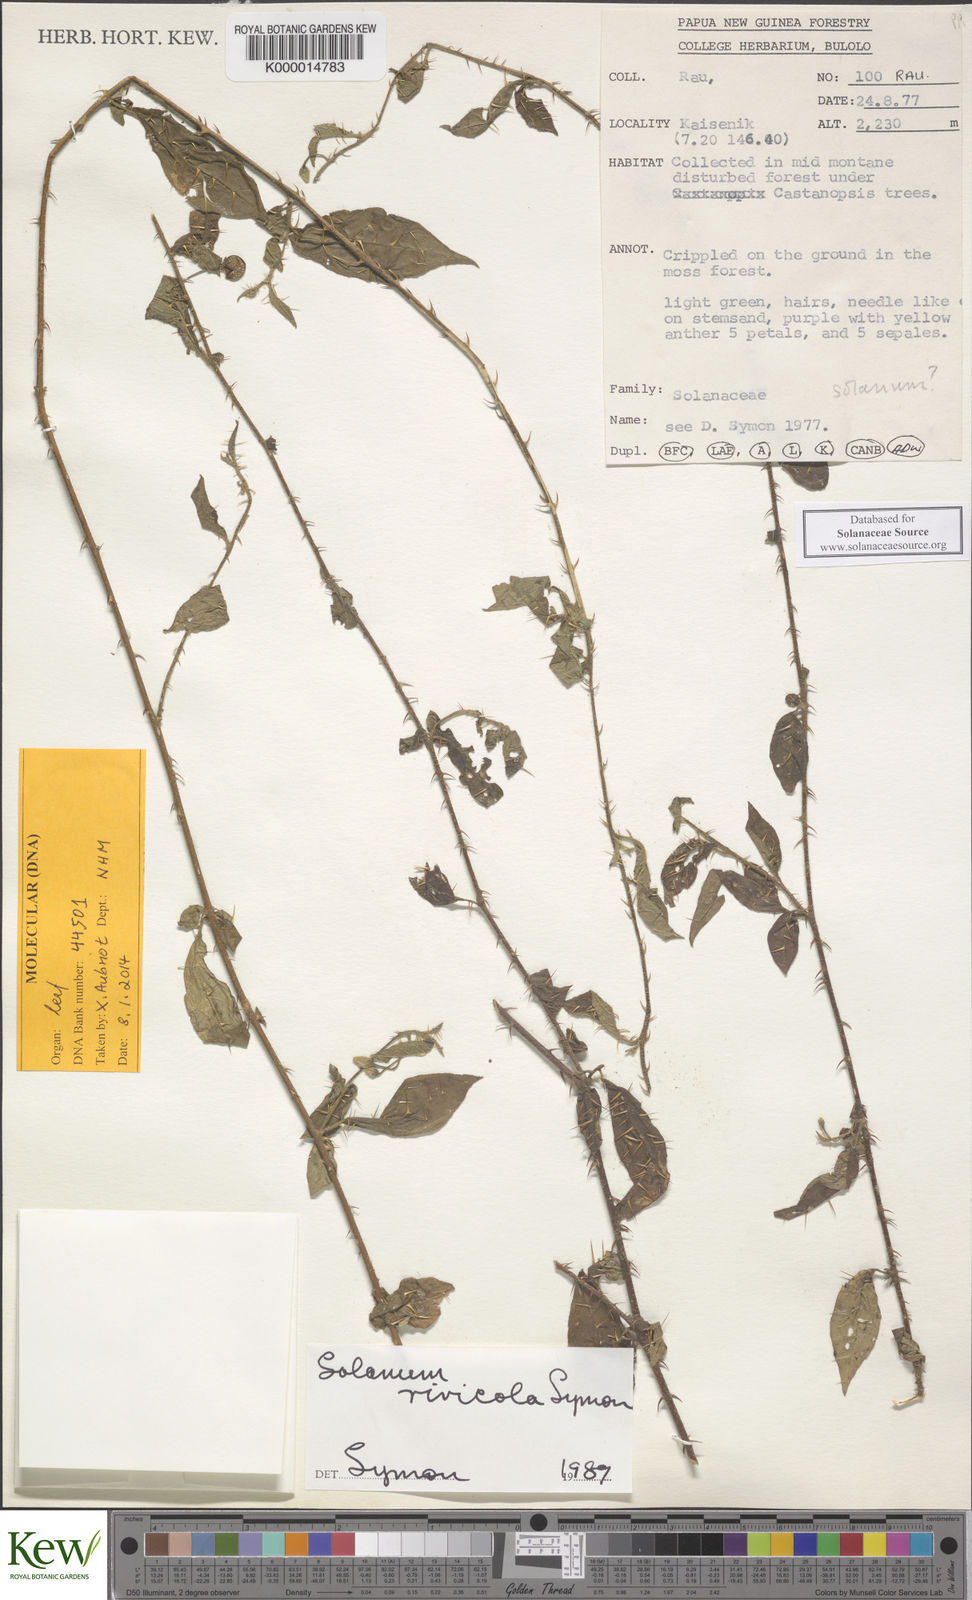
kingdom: Plantae
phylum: Tracheophyta
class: Magnoliopsida
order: Solanales
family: Solanaceae
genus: Solanum
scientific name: Solanum rivicola
